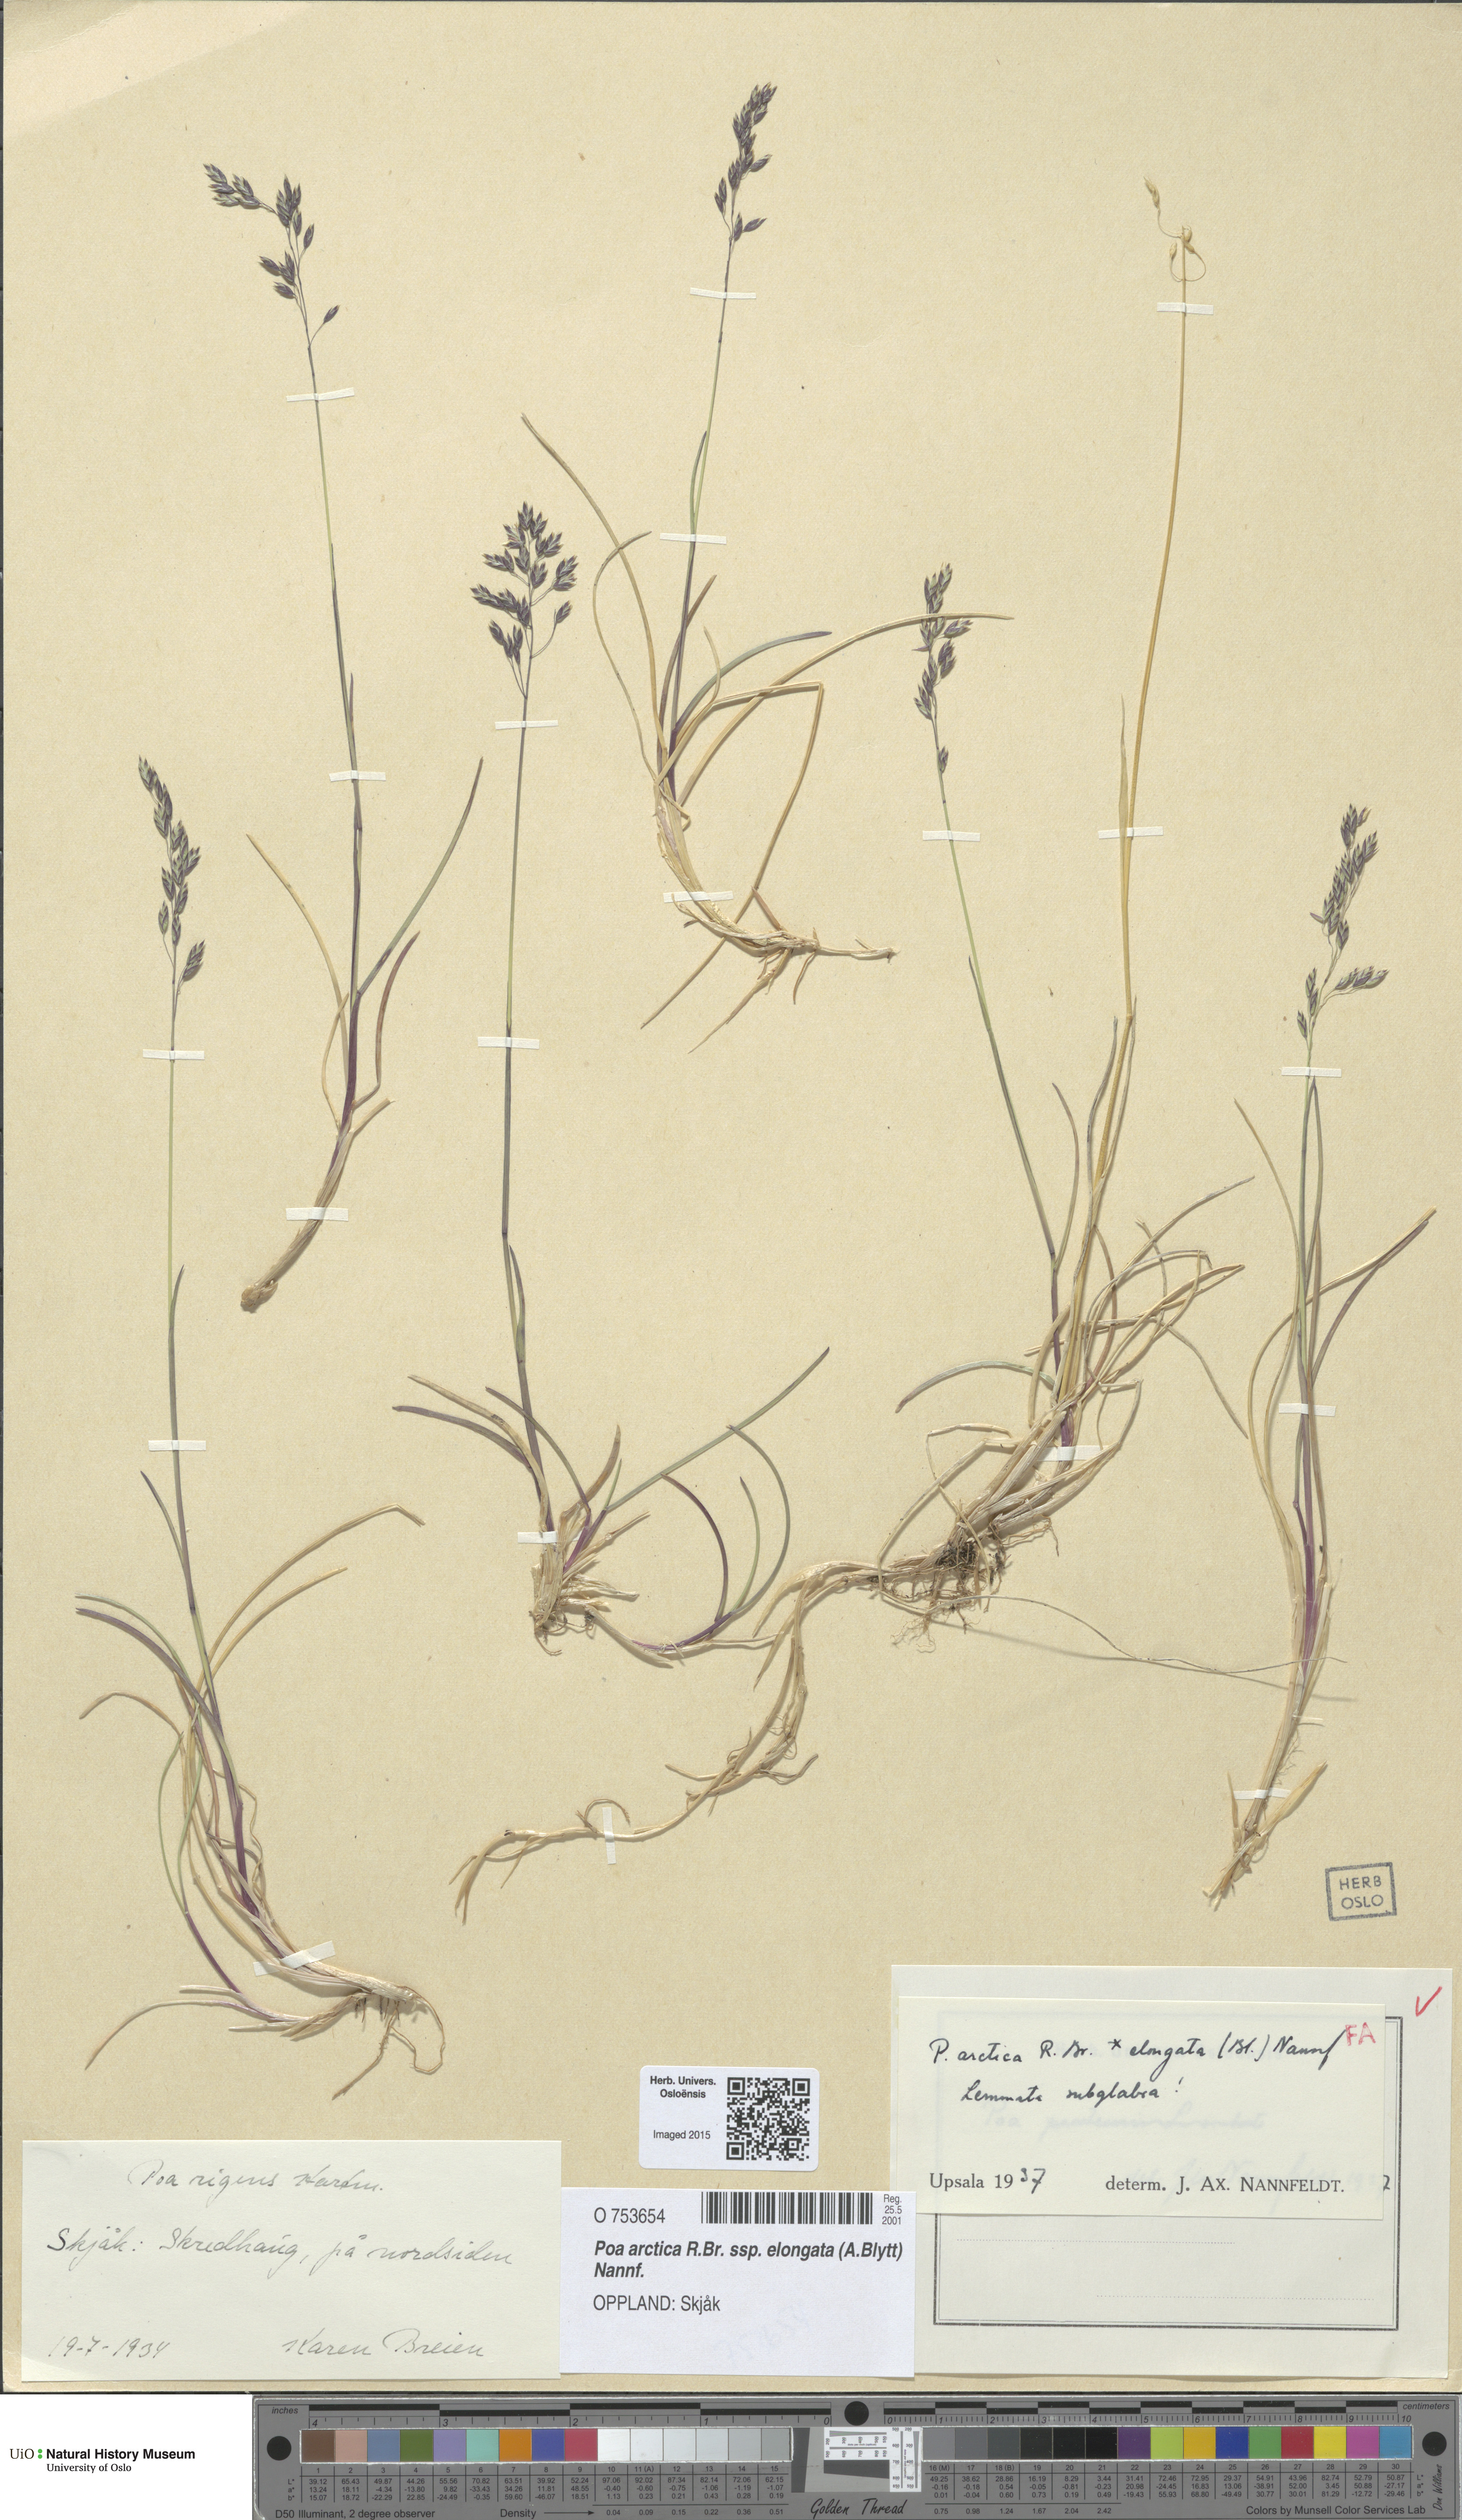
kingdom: Plantae
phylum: Tracheophyta
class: Liliopsida
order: Poales
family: Poaceae
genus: Poa
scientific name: Poa arctica
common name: Arctic bluegrass
